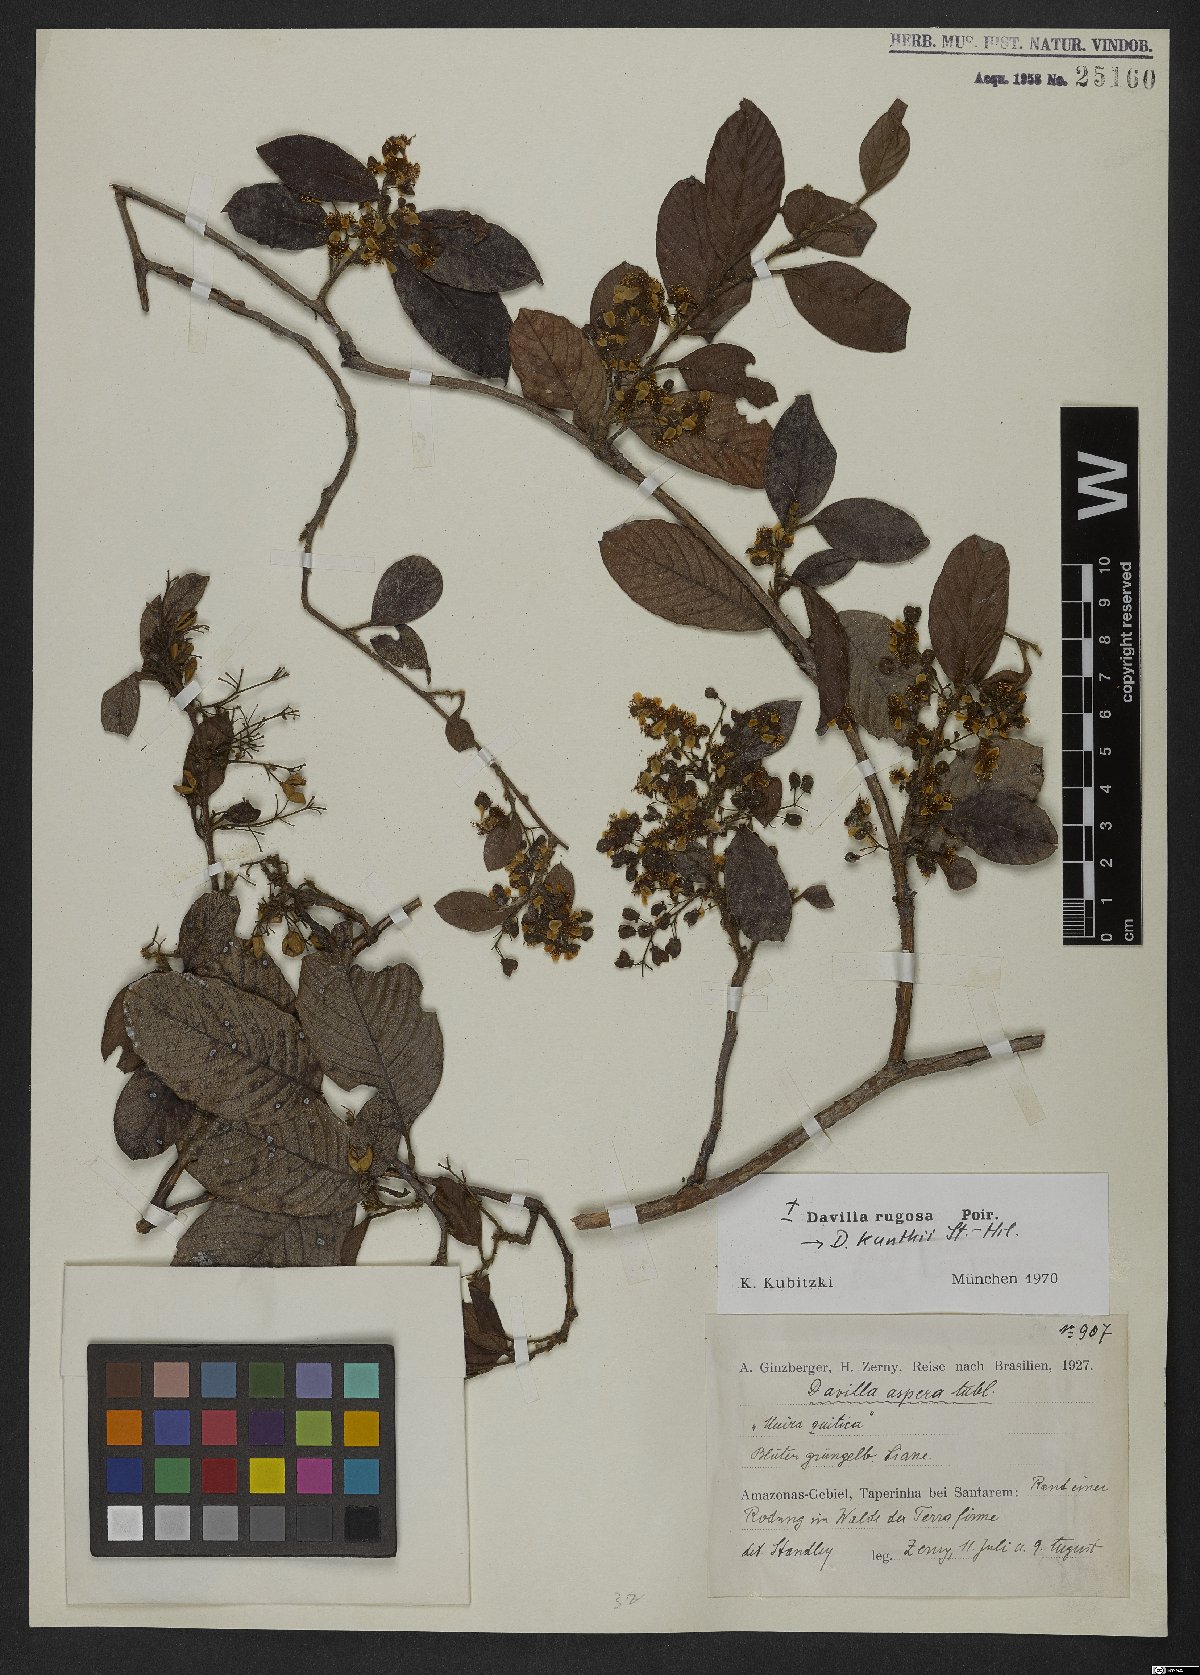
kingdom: Plantae
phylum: Tracheophyta
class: Magnoliopsida
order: Dilleniales
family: Dilleniaceae
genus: Davilla
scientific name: Davilla rugosa
